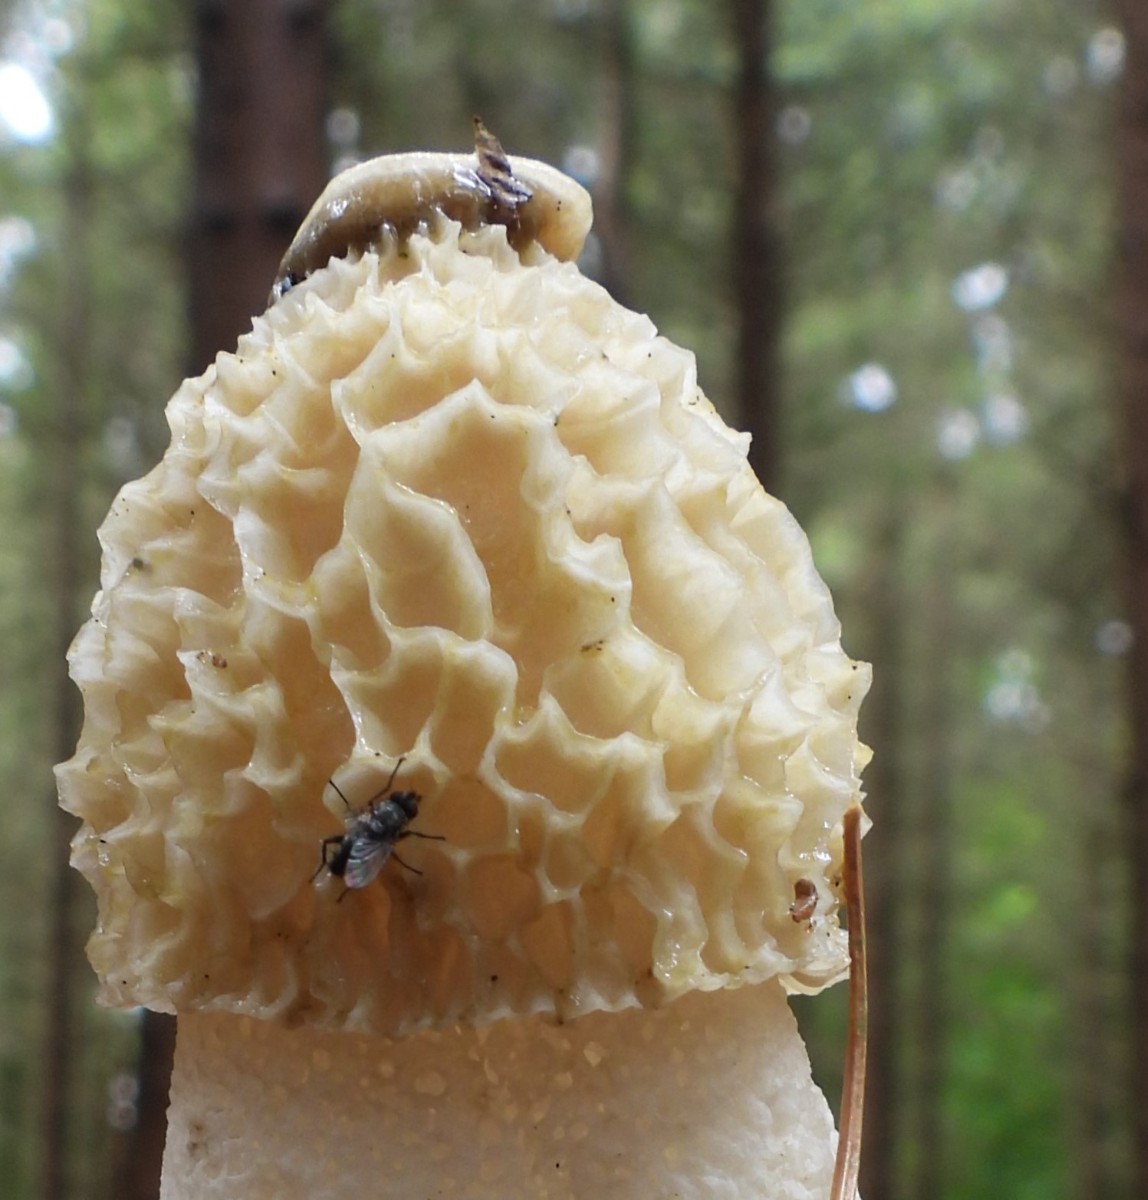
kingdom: Fungi
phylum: Basidiomycota
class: Agaricomycetes
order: Phallales
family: Phallaceae
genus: Phallus
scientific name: Phallus impudicus
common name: almindelig stinksvamp
